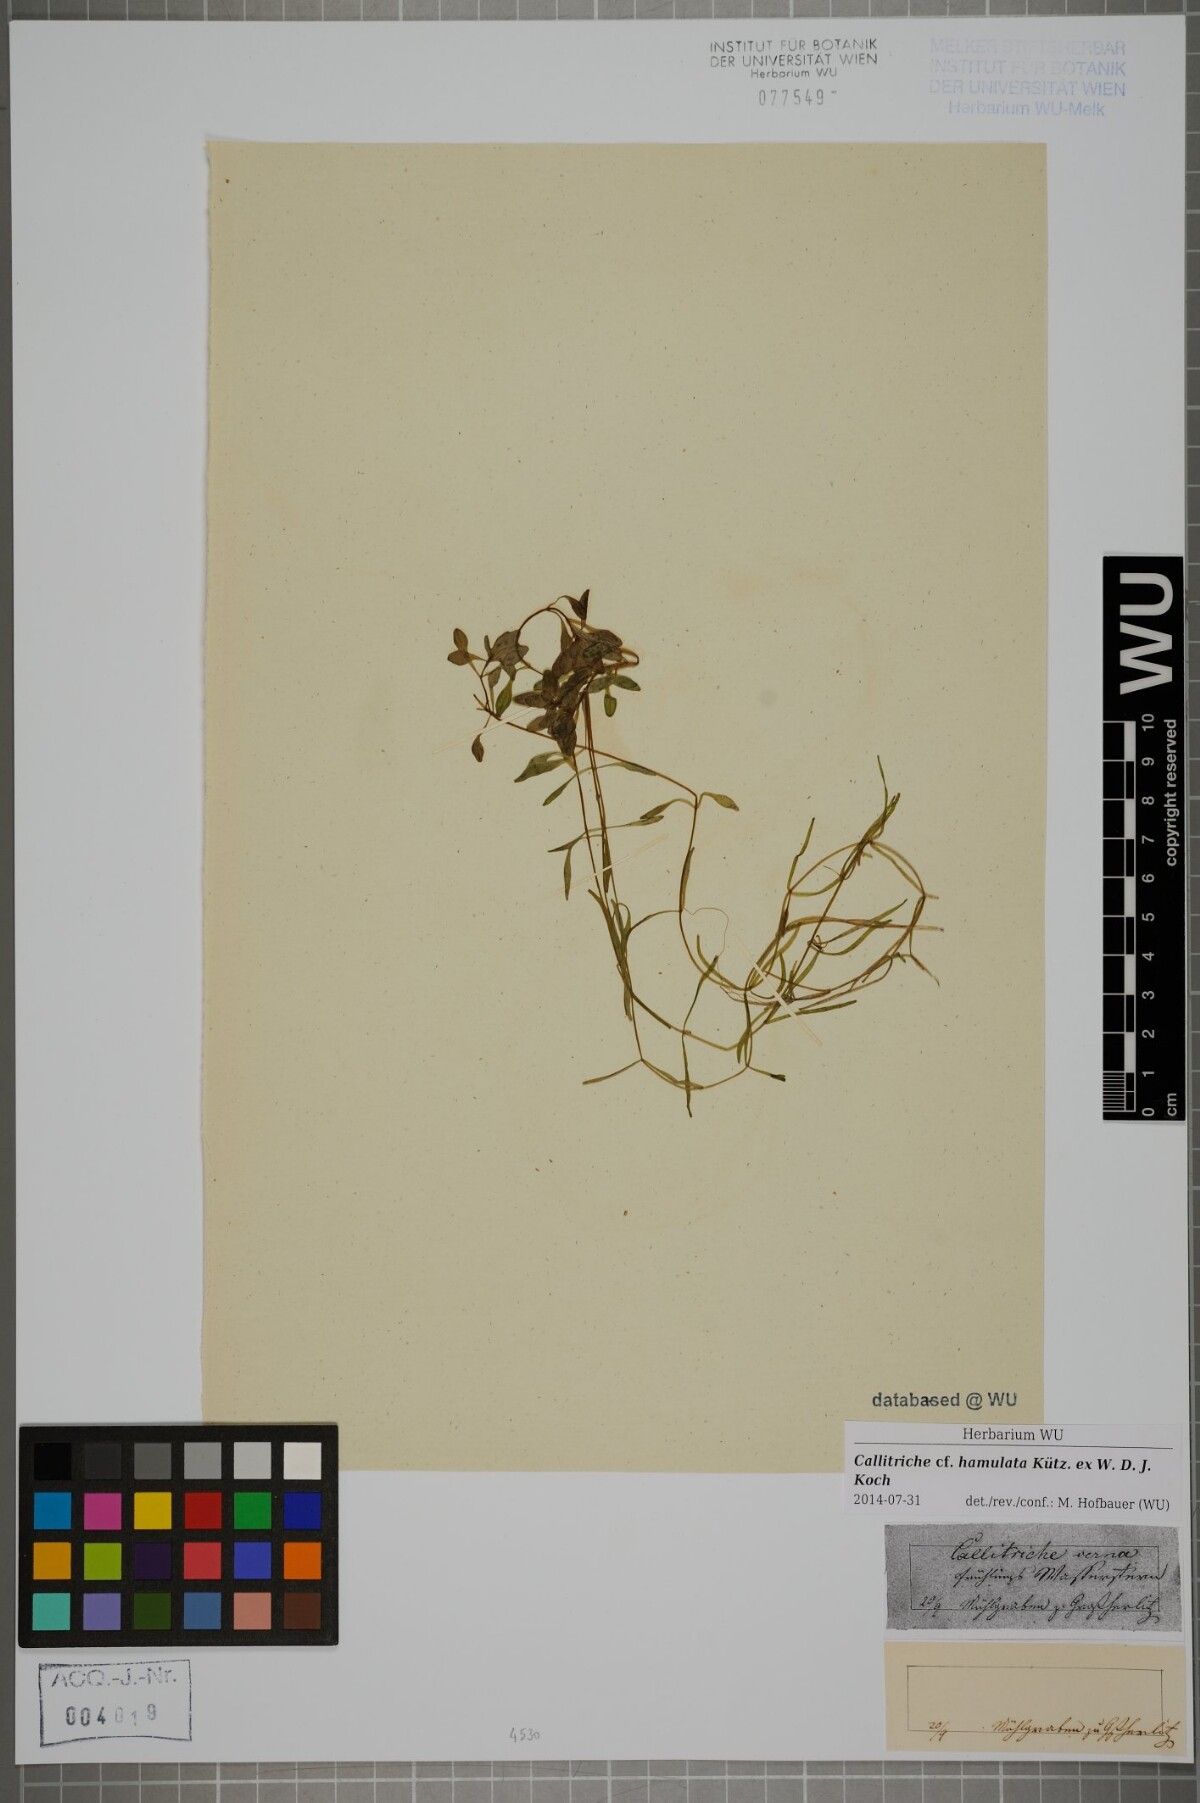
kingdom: Plantae
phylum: Tracheophyta
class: Magnoliopsida
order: Lamiales
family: Plantaginaceae
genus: Callitriche
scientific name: Callitriche hamulata
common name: Intermediate water-starwort
